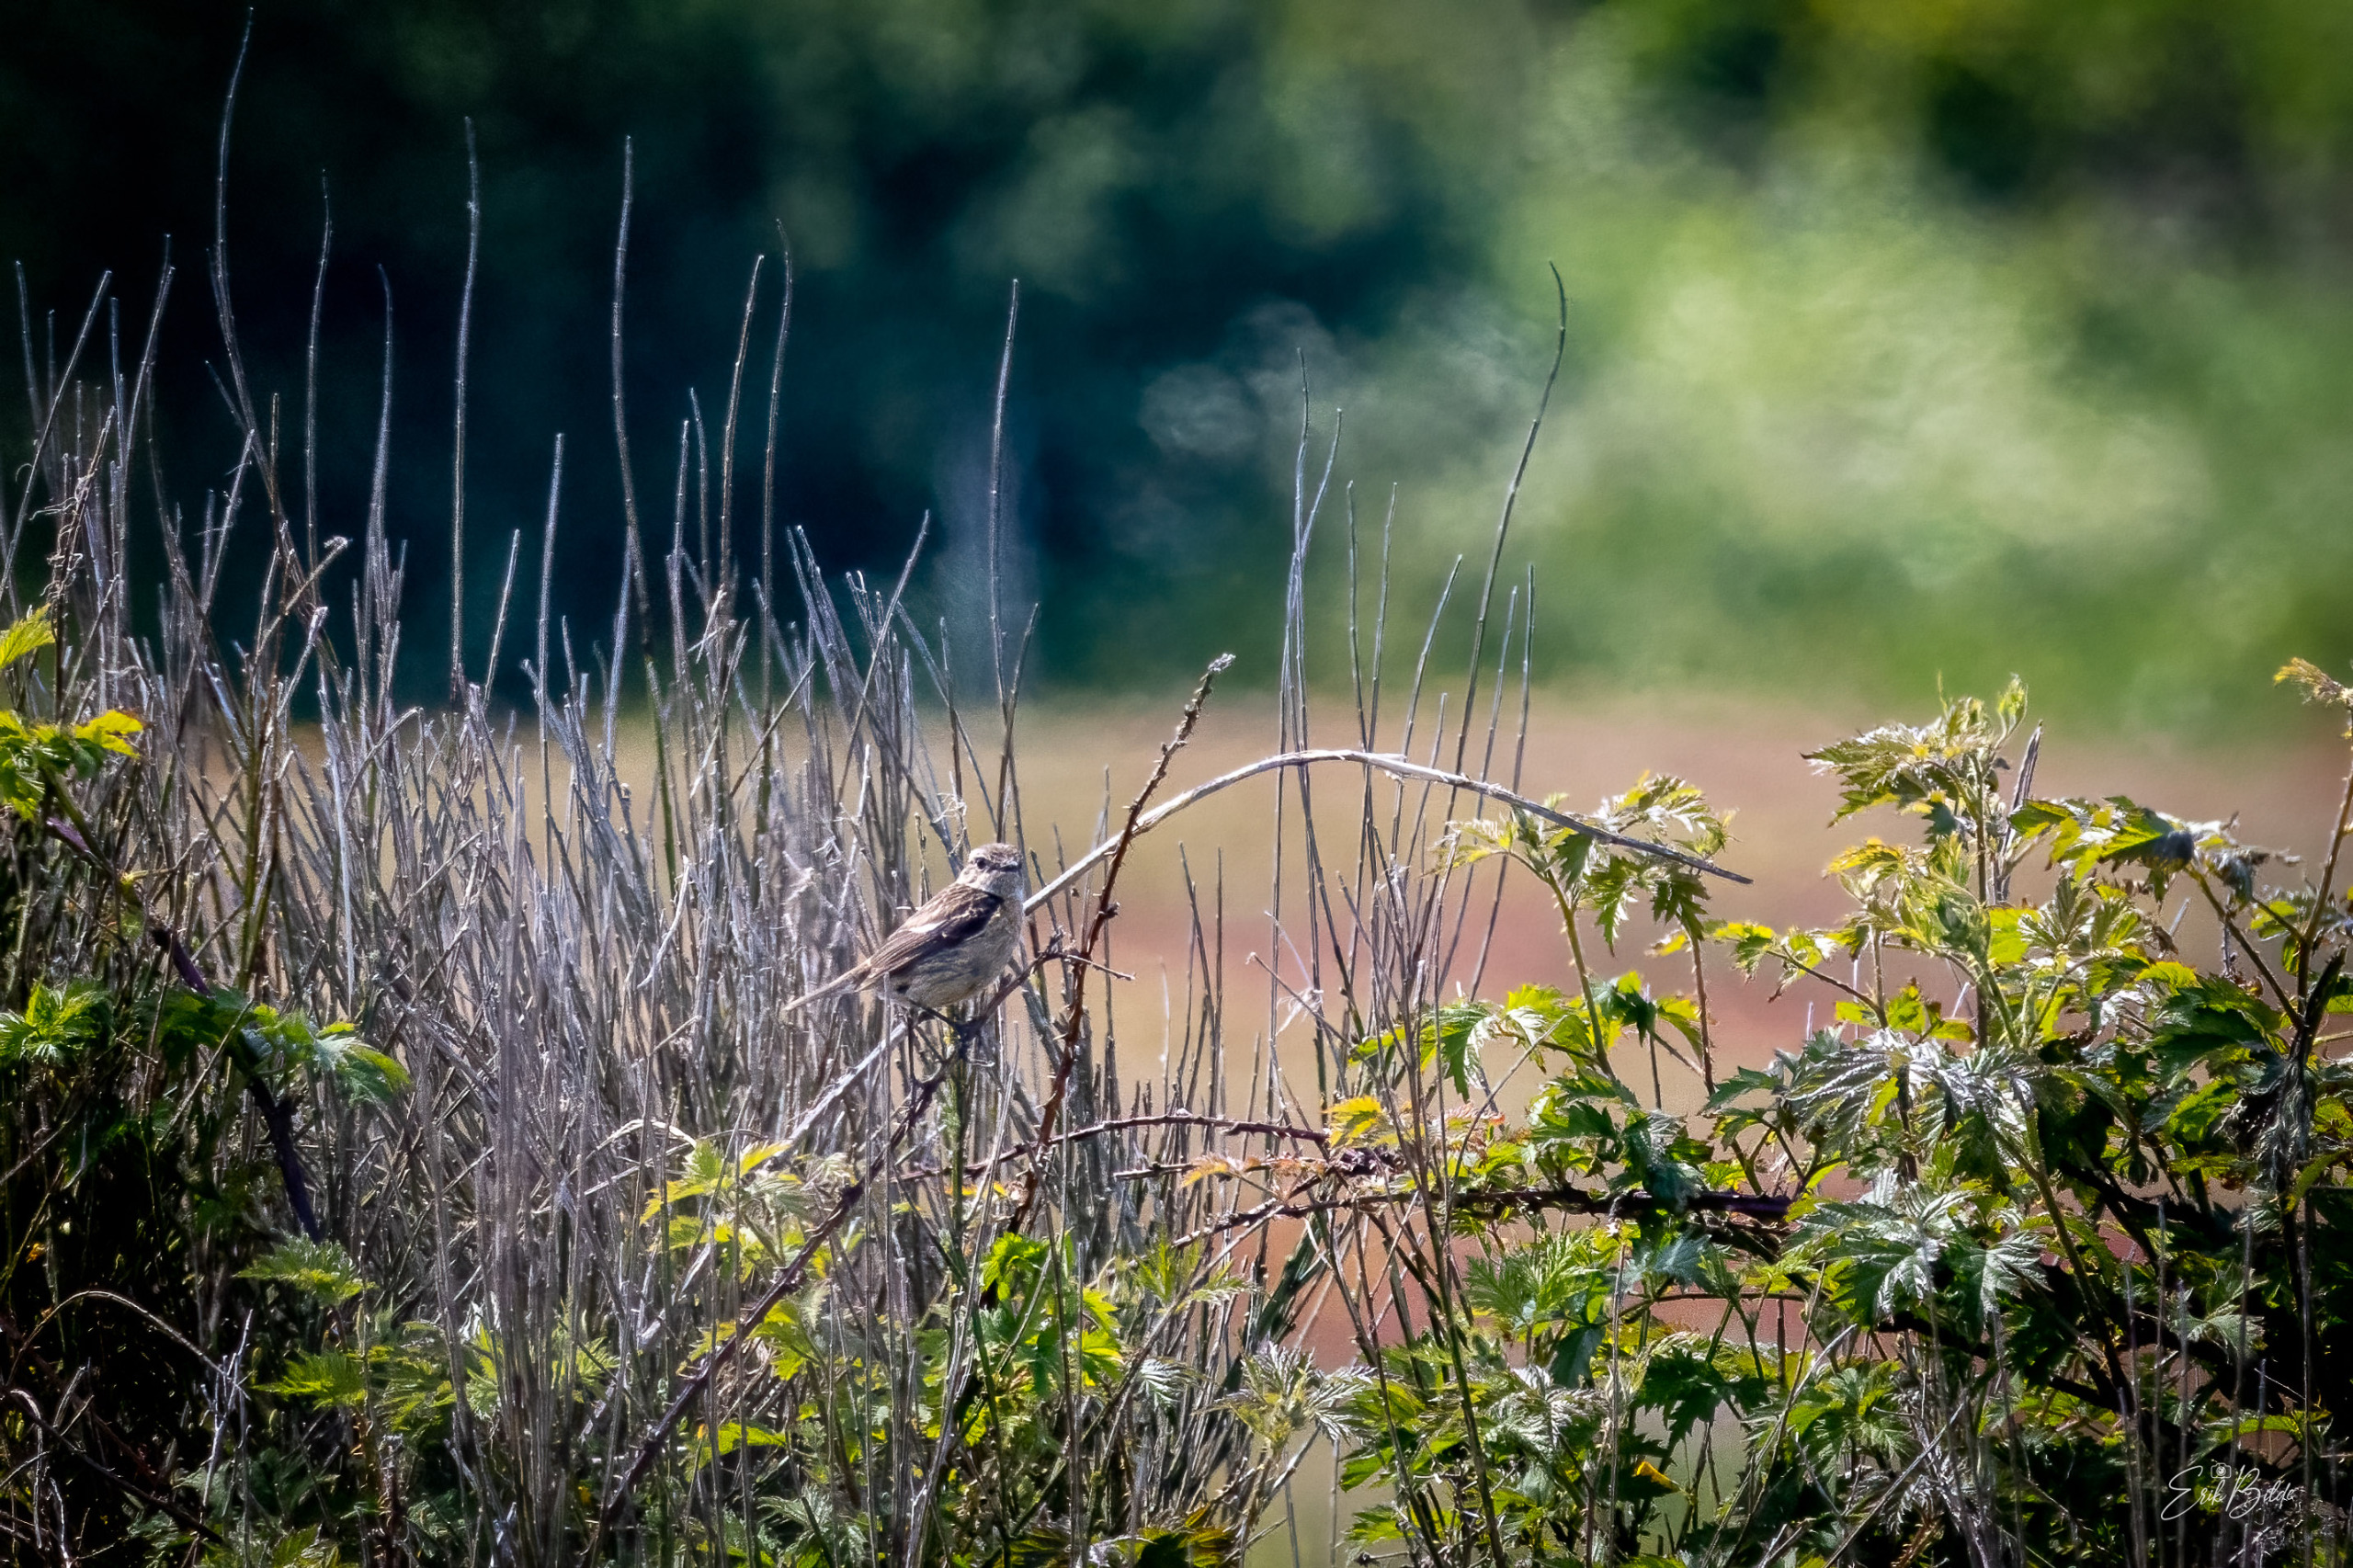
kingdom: Animalia
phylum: Chordata
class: Aves
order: Passeriformes
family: Muscicapidae
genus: Saxicola
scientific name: Saxicola rubicola
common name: Sortstrubet bynkefugl
